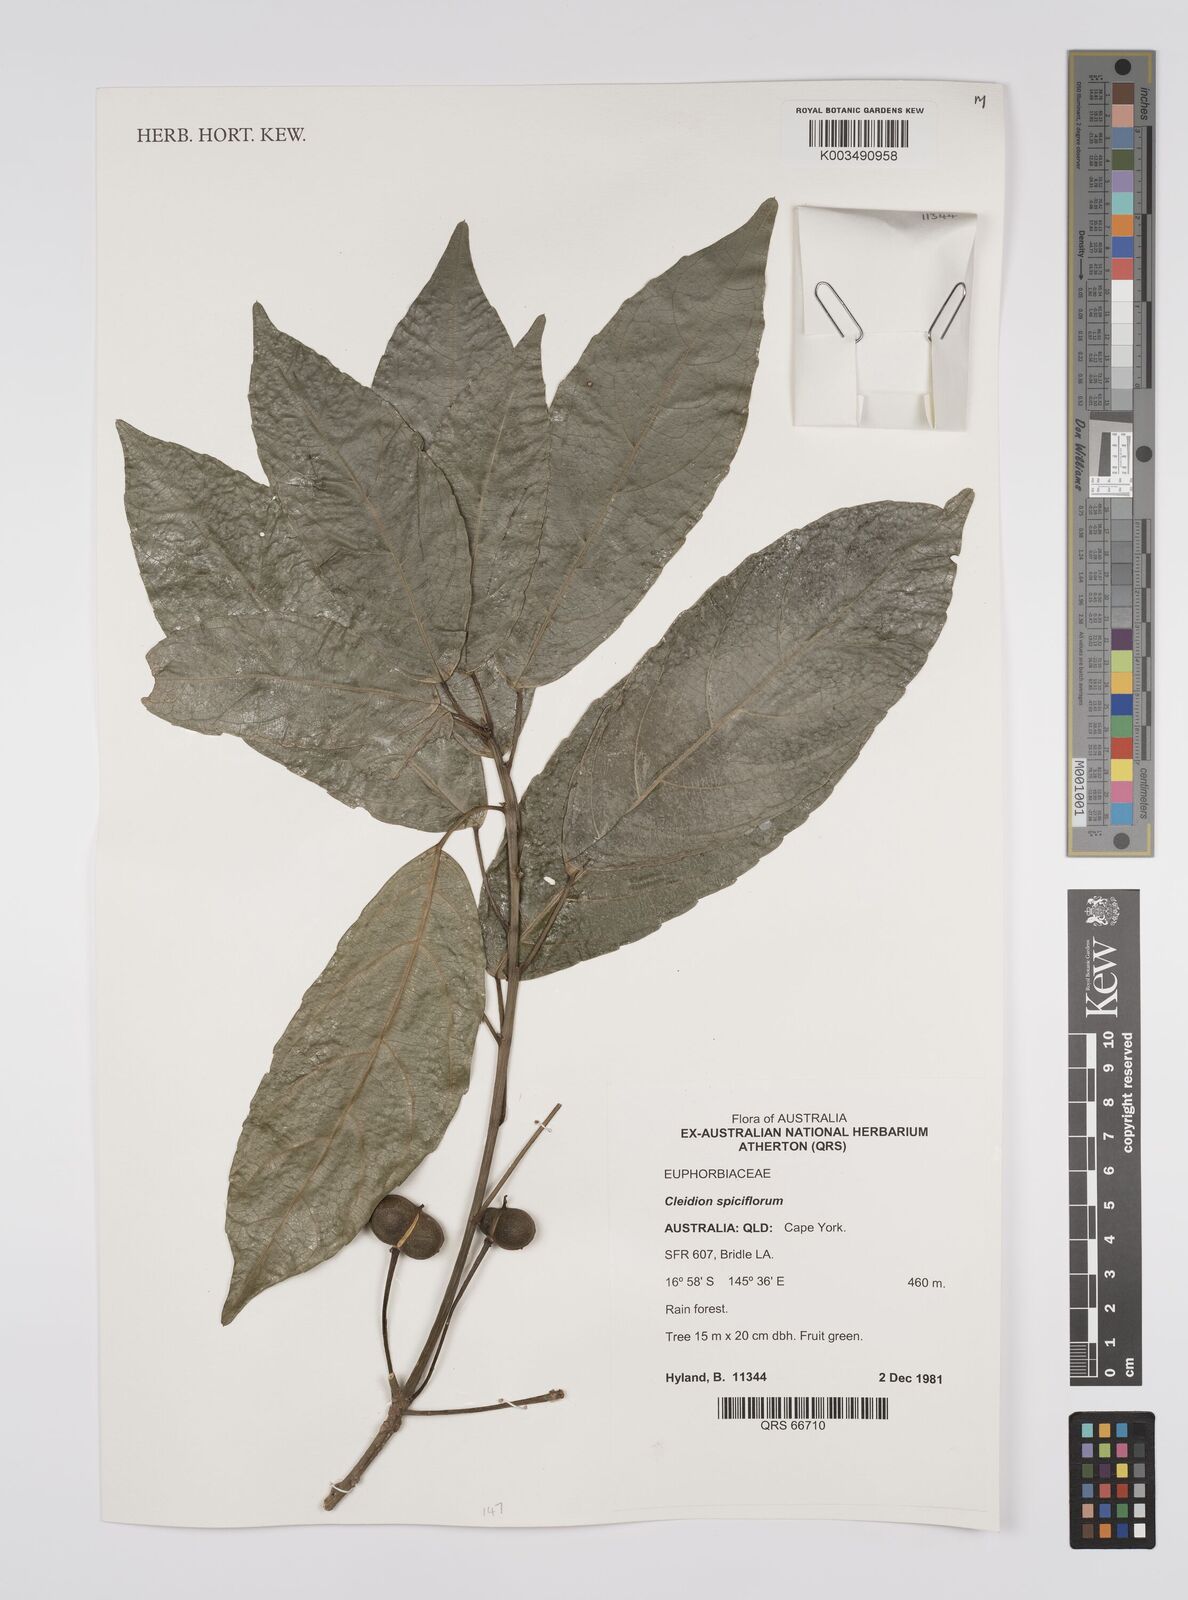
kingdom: Plantae
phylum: Tracheophyta
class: Magnoliopsida
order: Malpighiales
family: Euphorbiaceae
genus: Cleidion
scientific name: Cleidion javanicum
